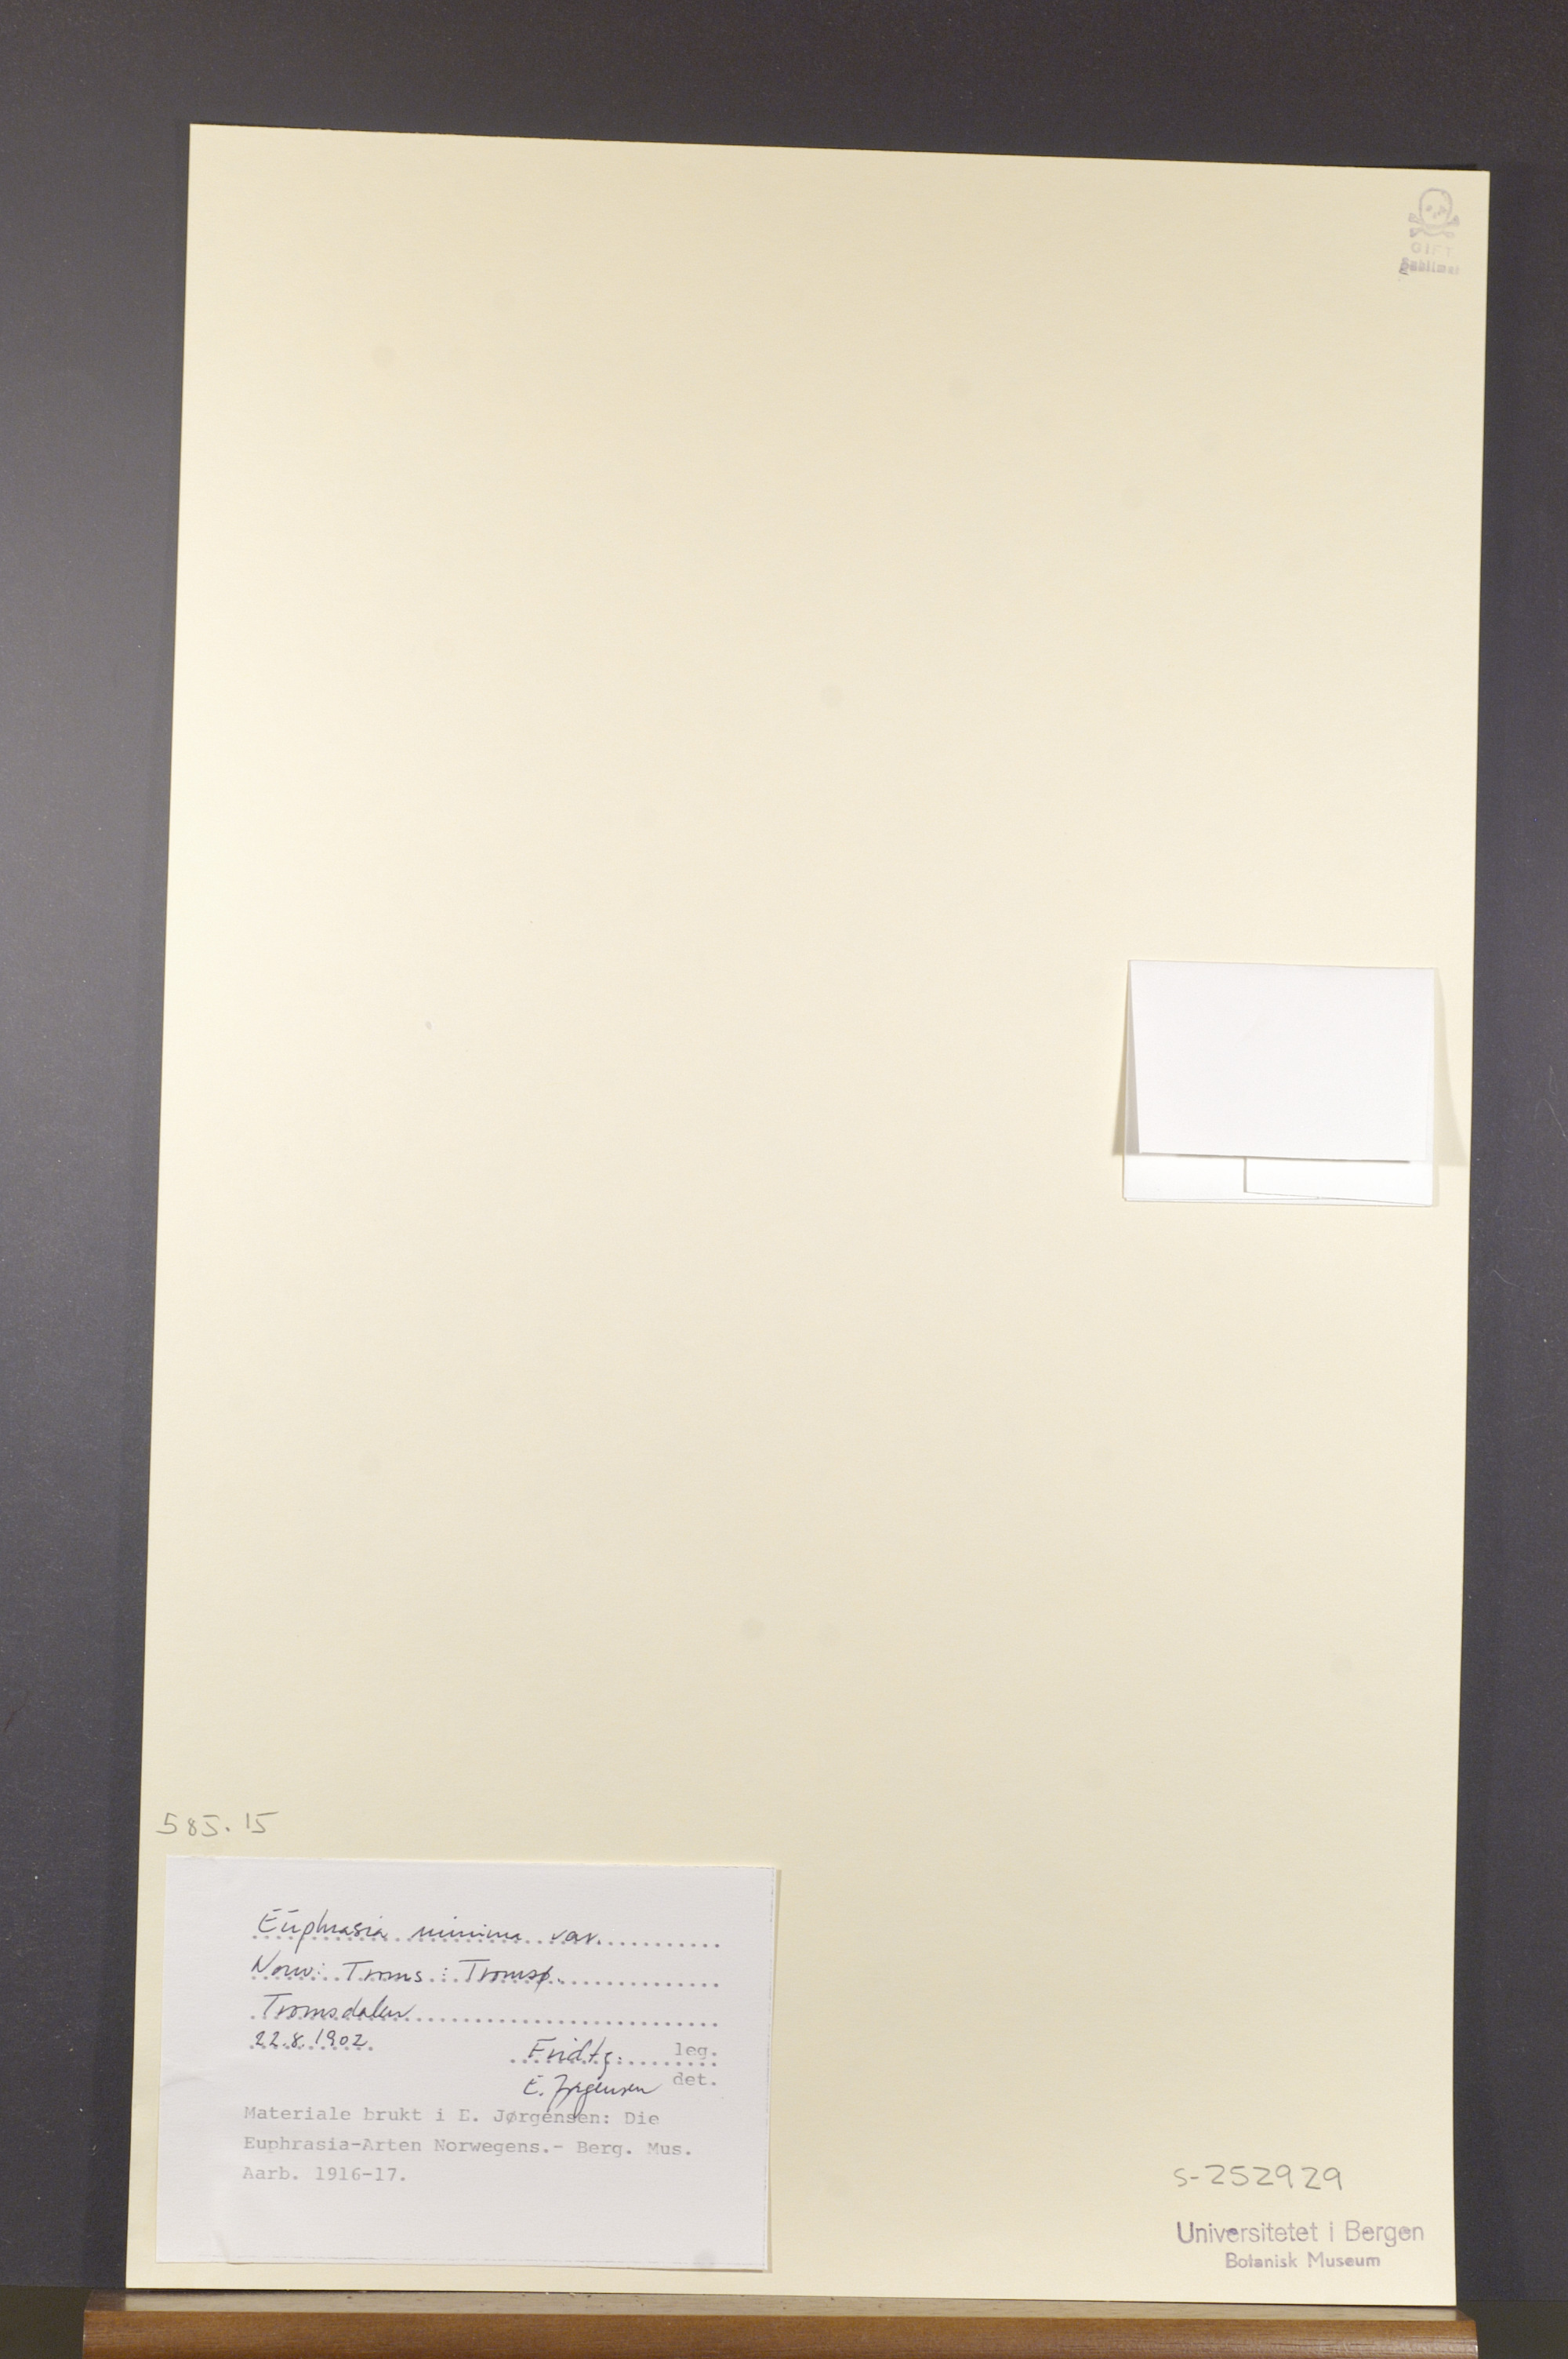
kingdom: Plantae
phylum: Tracheophyta
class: Magnoliopsida
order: Lamiales
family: Orobanchaceae
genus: Euphrasia
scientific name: Euphrasia minima
